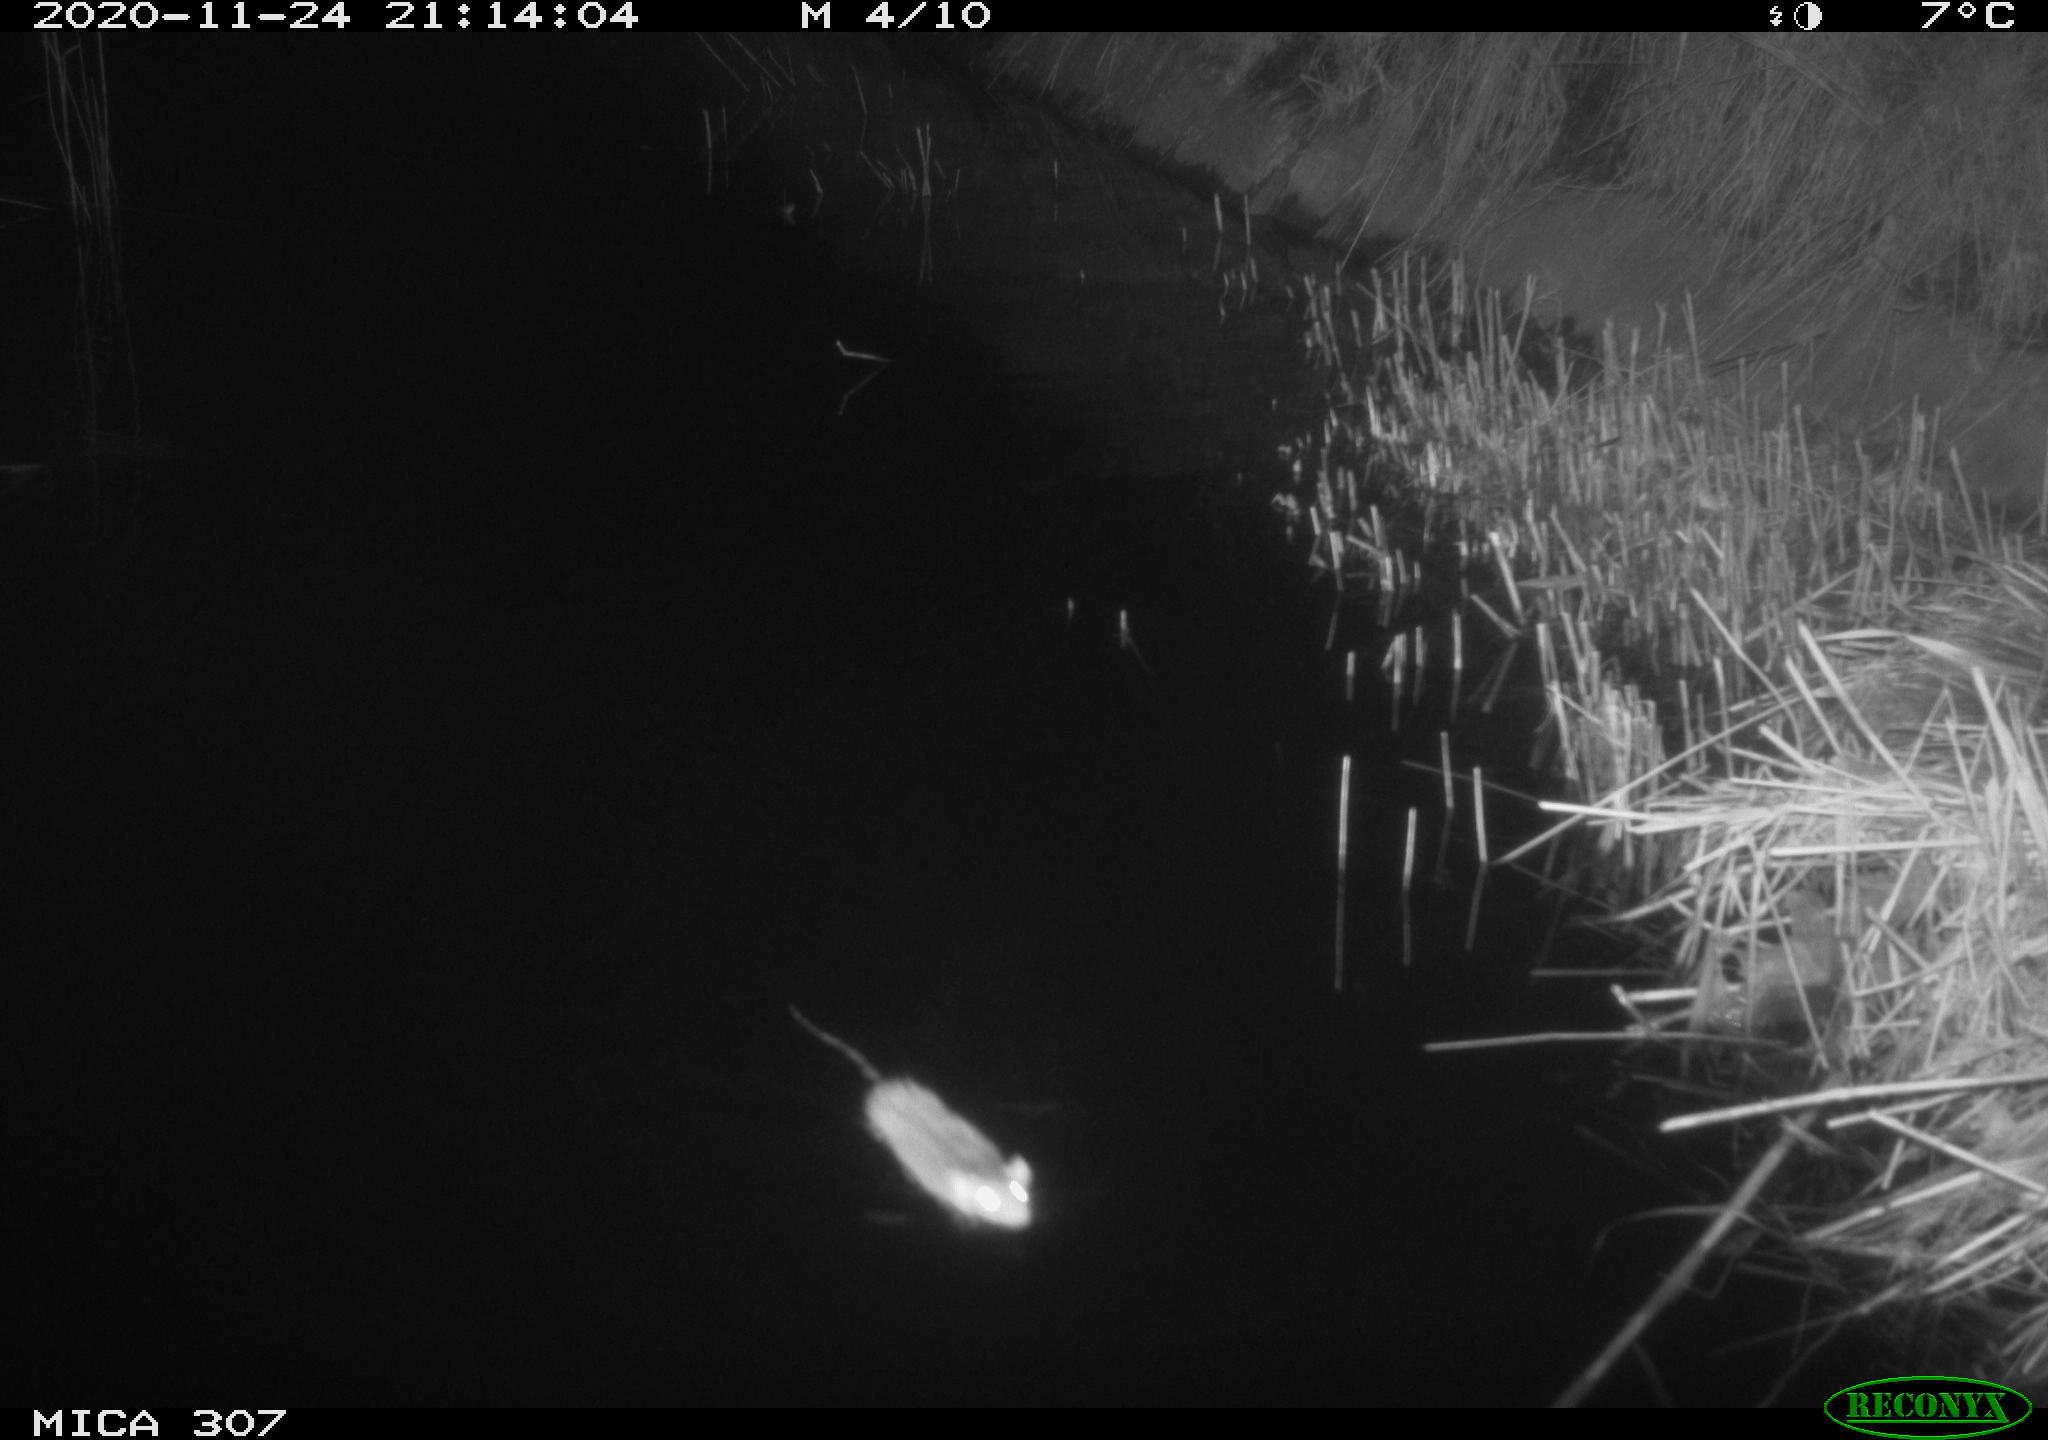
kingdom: Animalia
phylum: Chordata
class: Mammalia
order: Rodentia
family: Muridae
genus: Rattus
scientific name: Rattus norvegicus
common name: Brown rat
